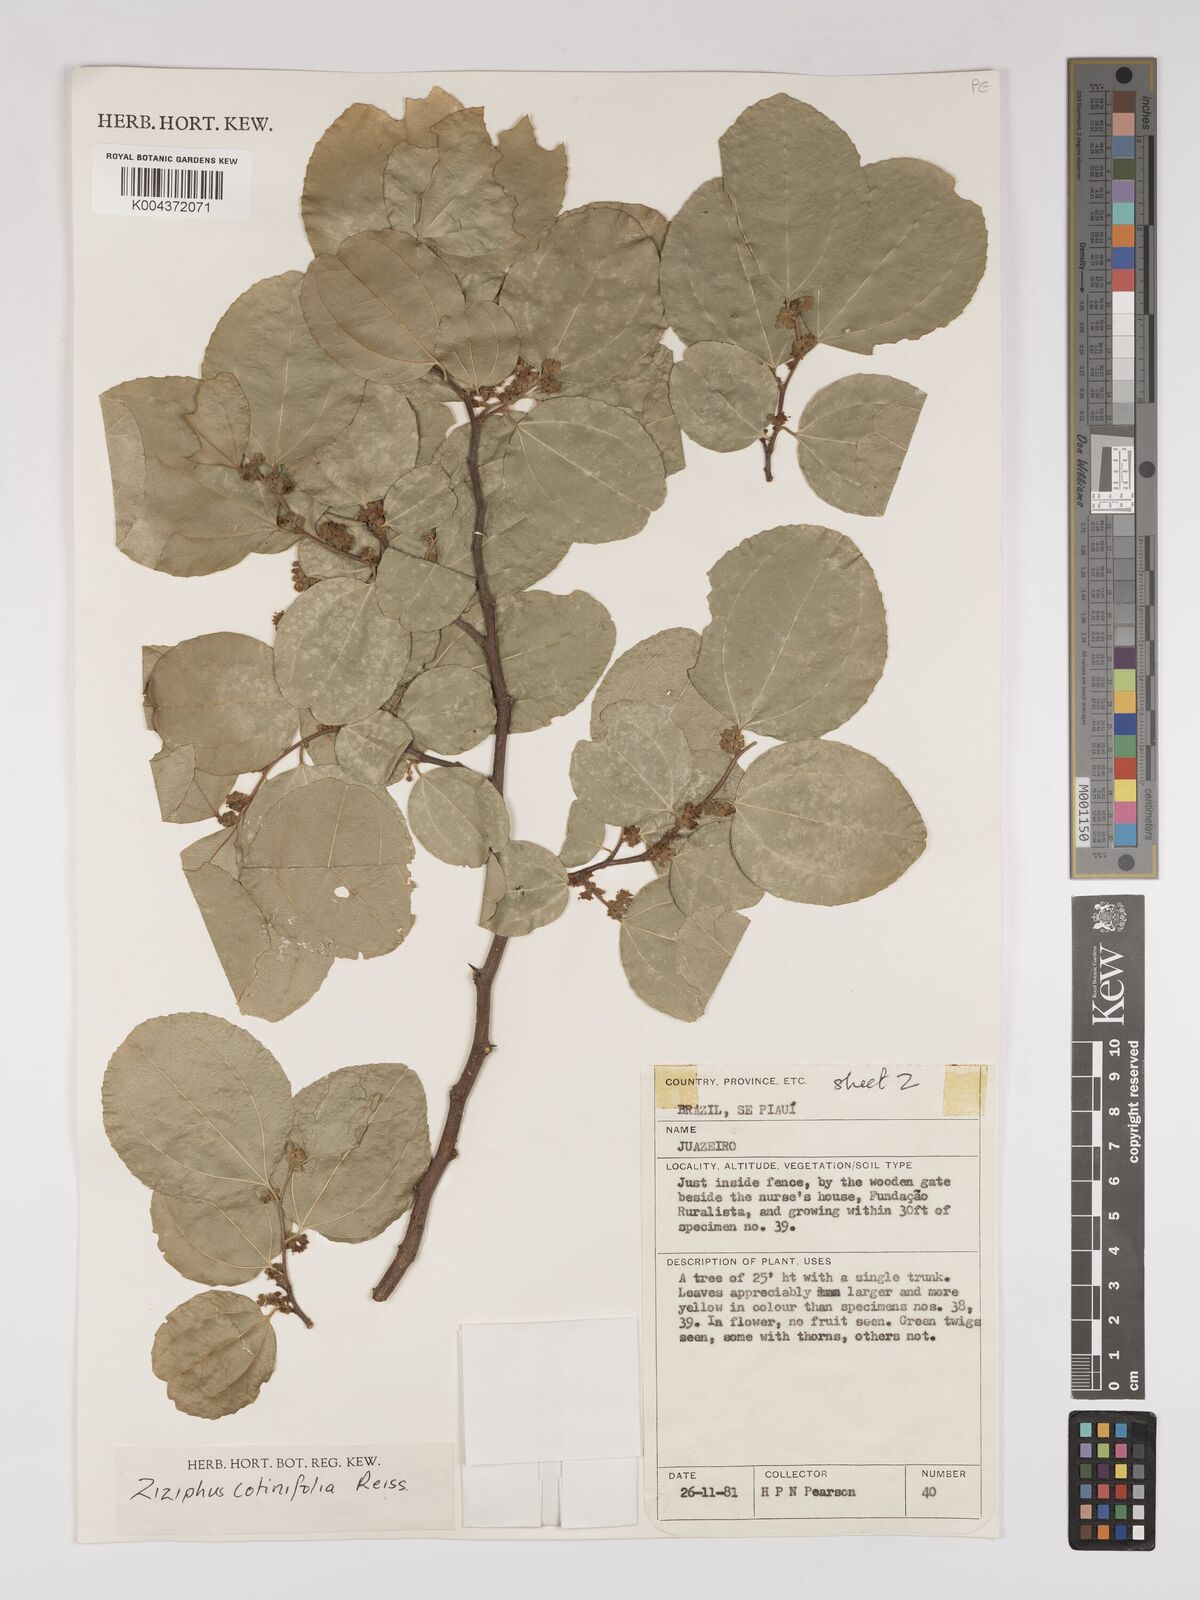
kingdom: Plantae
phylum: Tracheophyta
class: Magnoliopsida
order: Rosales
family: Rhamnaceae
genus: Sarcomphalus
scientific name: Sarcomphalus cotinifolius
